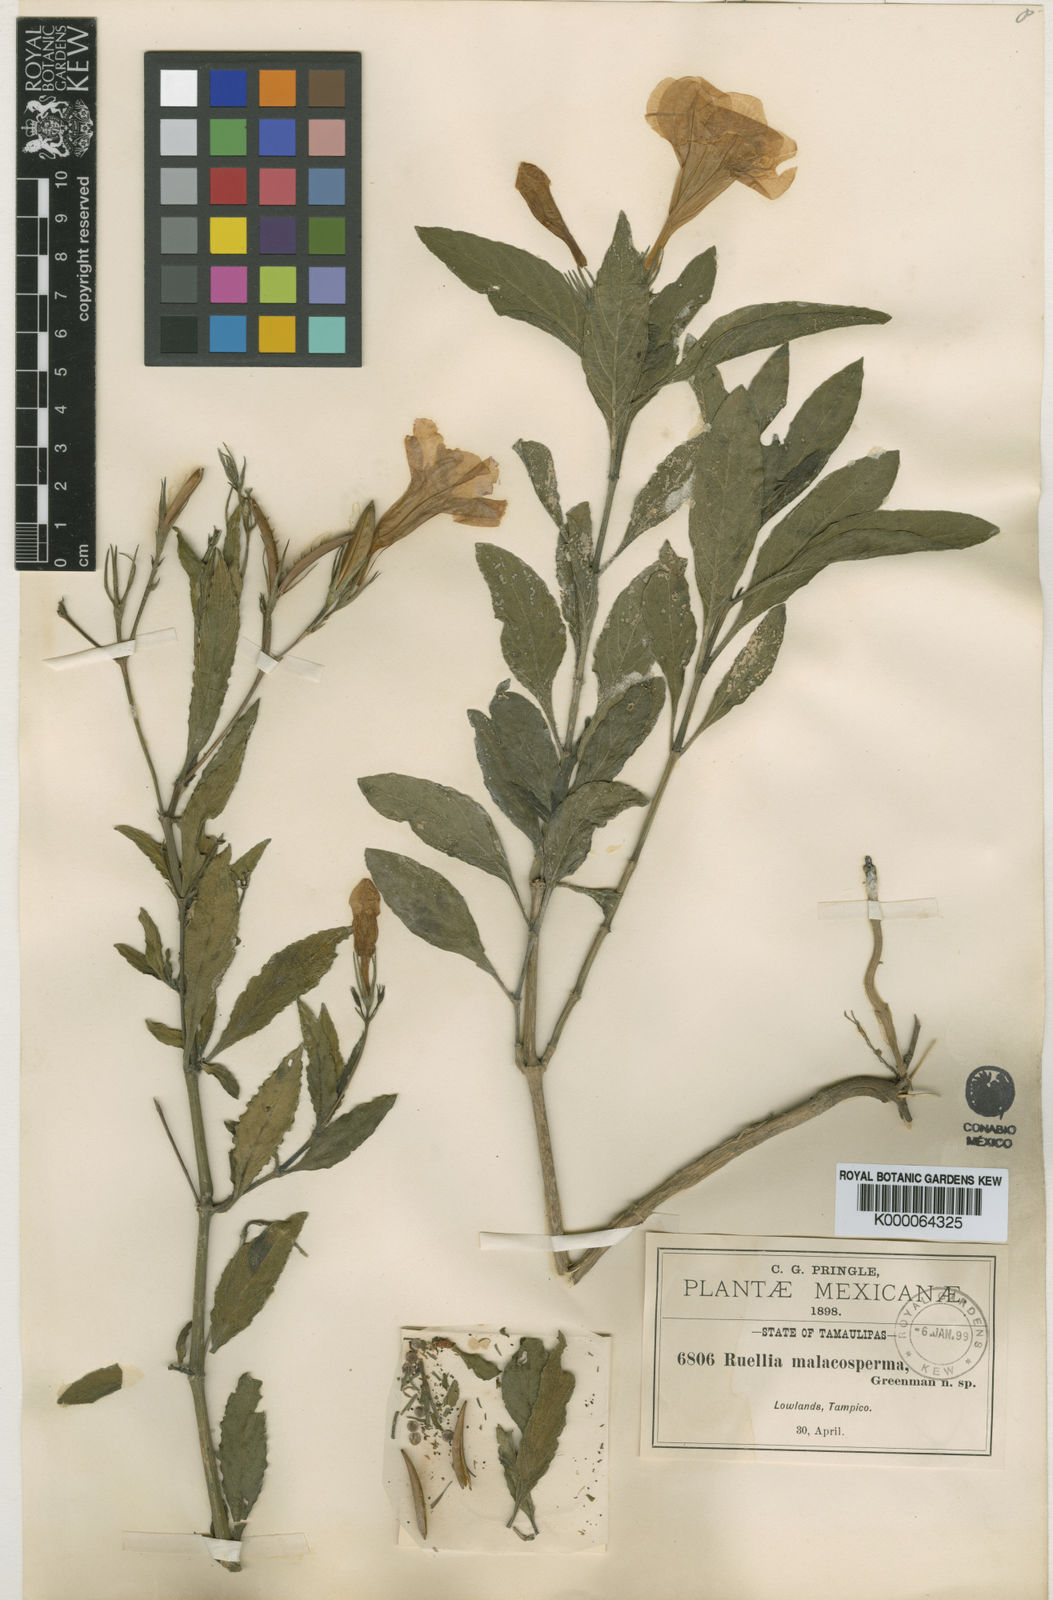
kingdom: Plantae
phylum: Tracheophyta
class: Magnoliopsida
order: Lamiales
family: Acanthaceae
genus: Ruellia
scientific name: Ruellia simplex
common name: Softseed wild petunia
